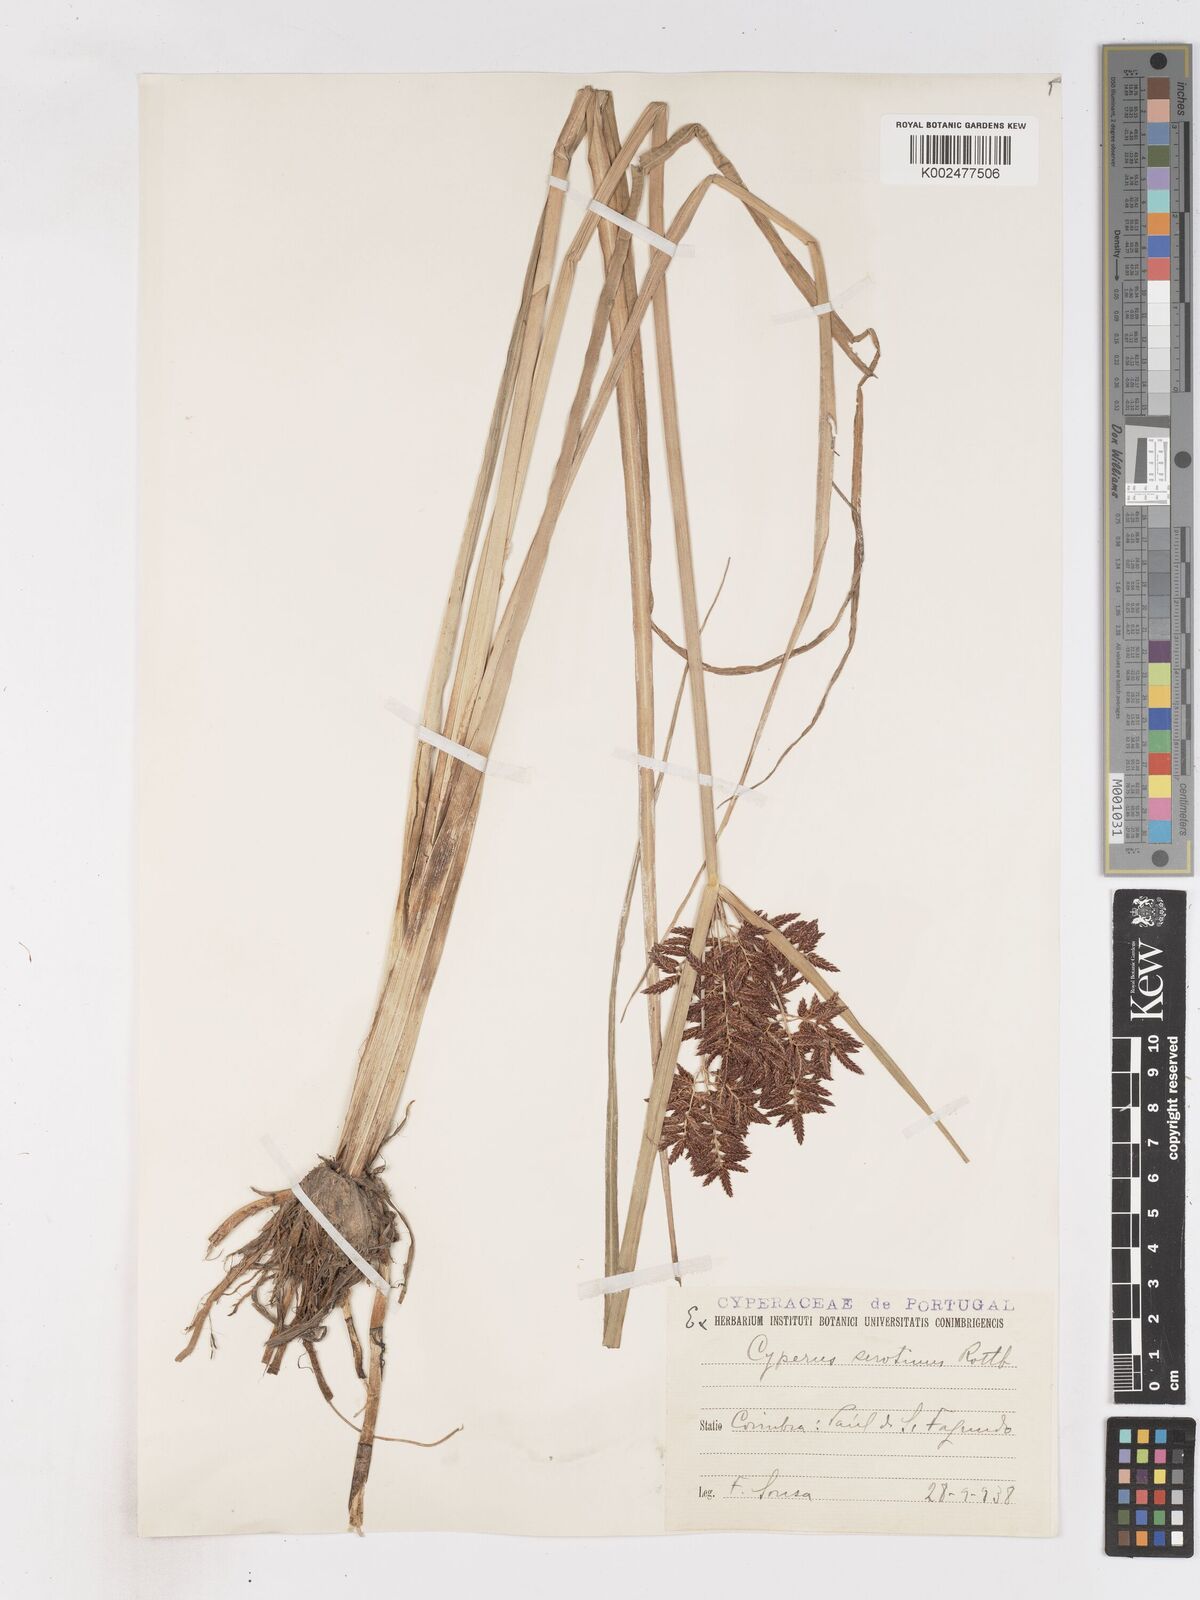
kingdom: Plantae
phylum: Tracheophyta
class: Liliopsida
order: Poales
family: Cyperaceae
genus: Cyperus
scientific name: Cyperus serotinus
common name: Tidalmarsh flatsedge
